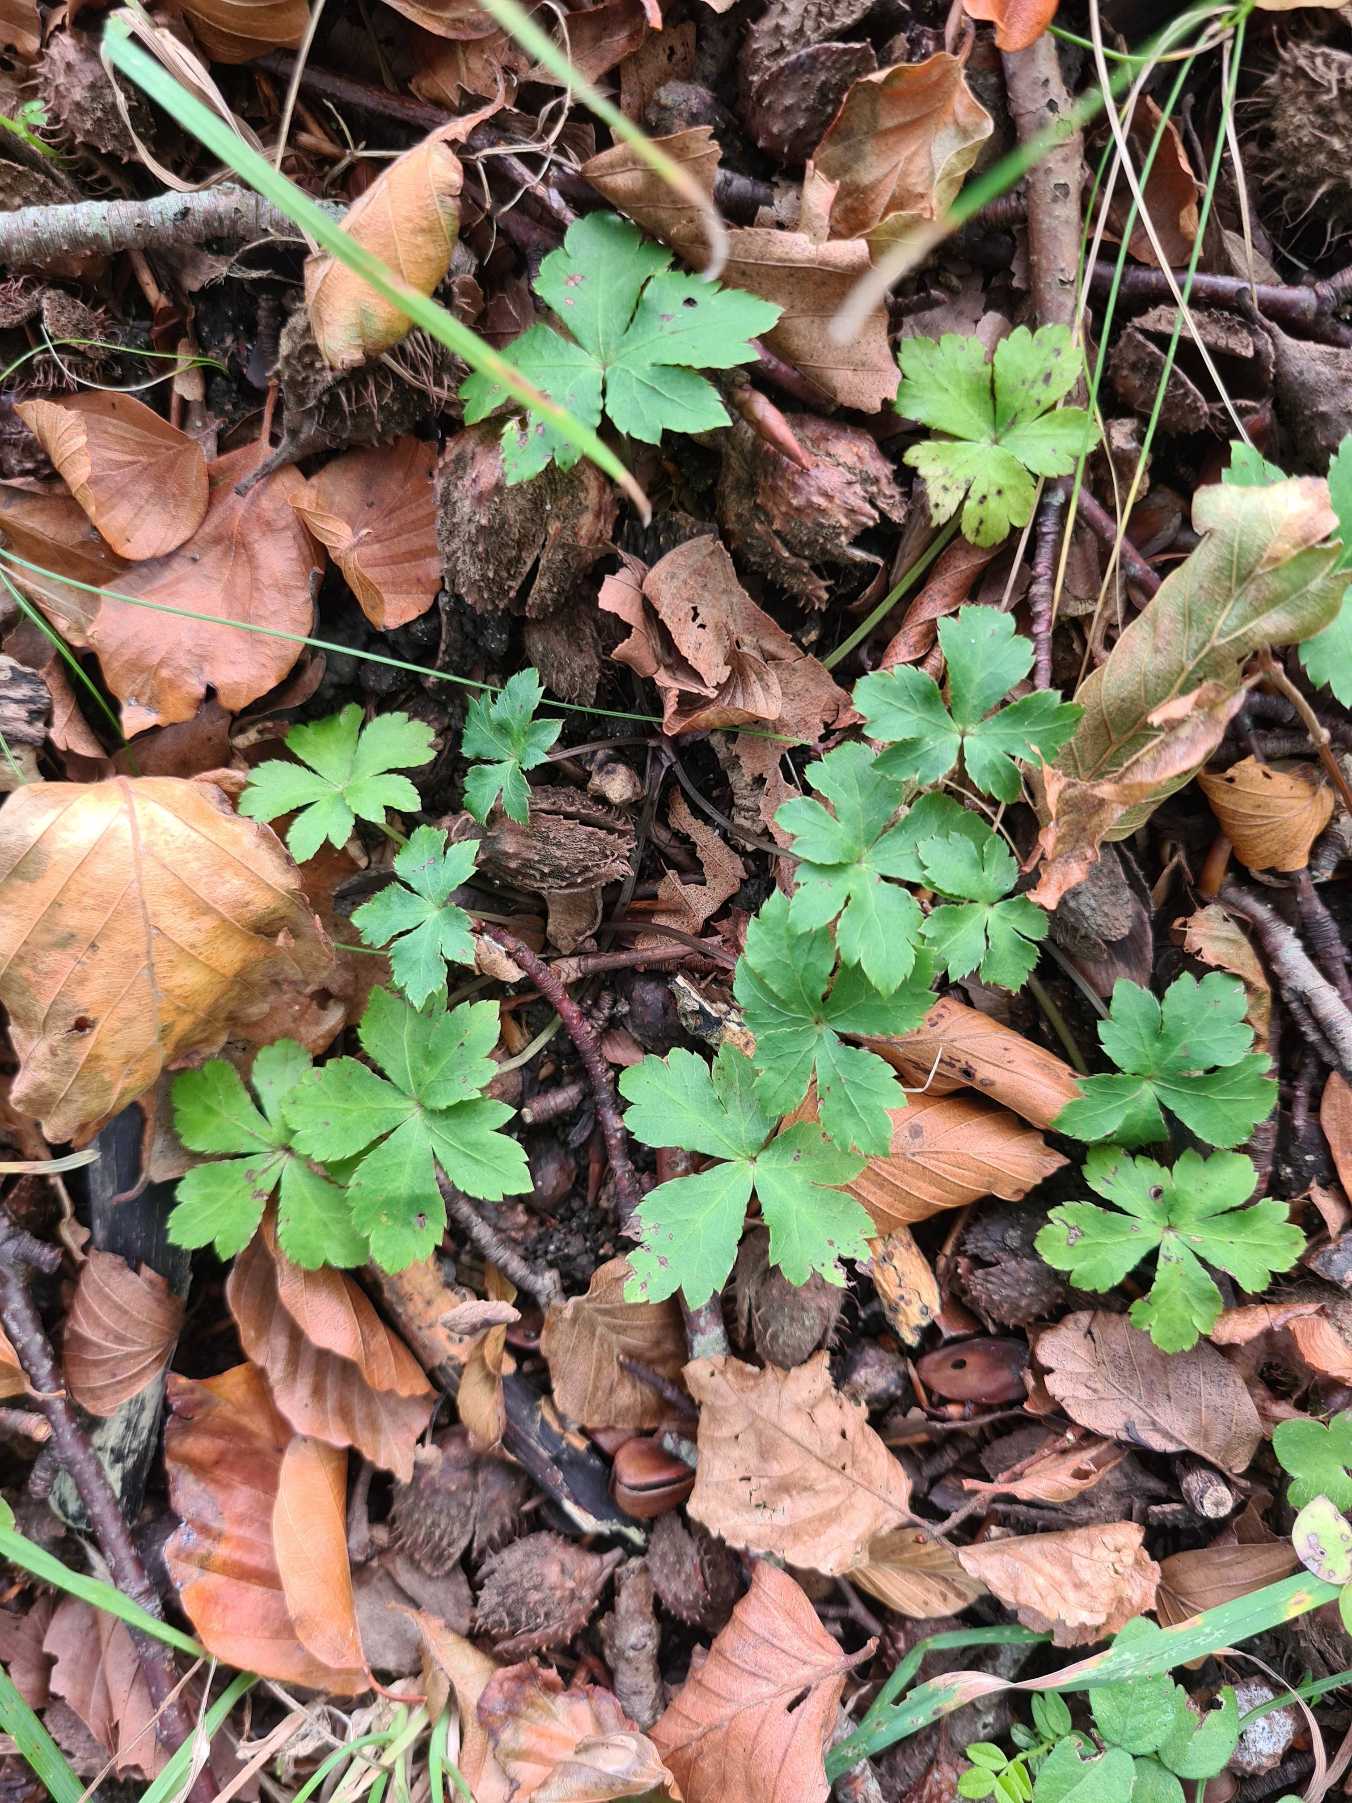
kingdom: Plantae
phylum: Tracheophyta
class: Magnoliopsida
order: Apiales
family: Apiaceae
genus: Sanicula
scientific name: Sanicula europaea
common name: Sanikel
